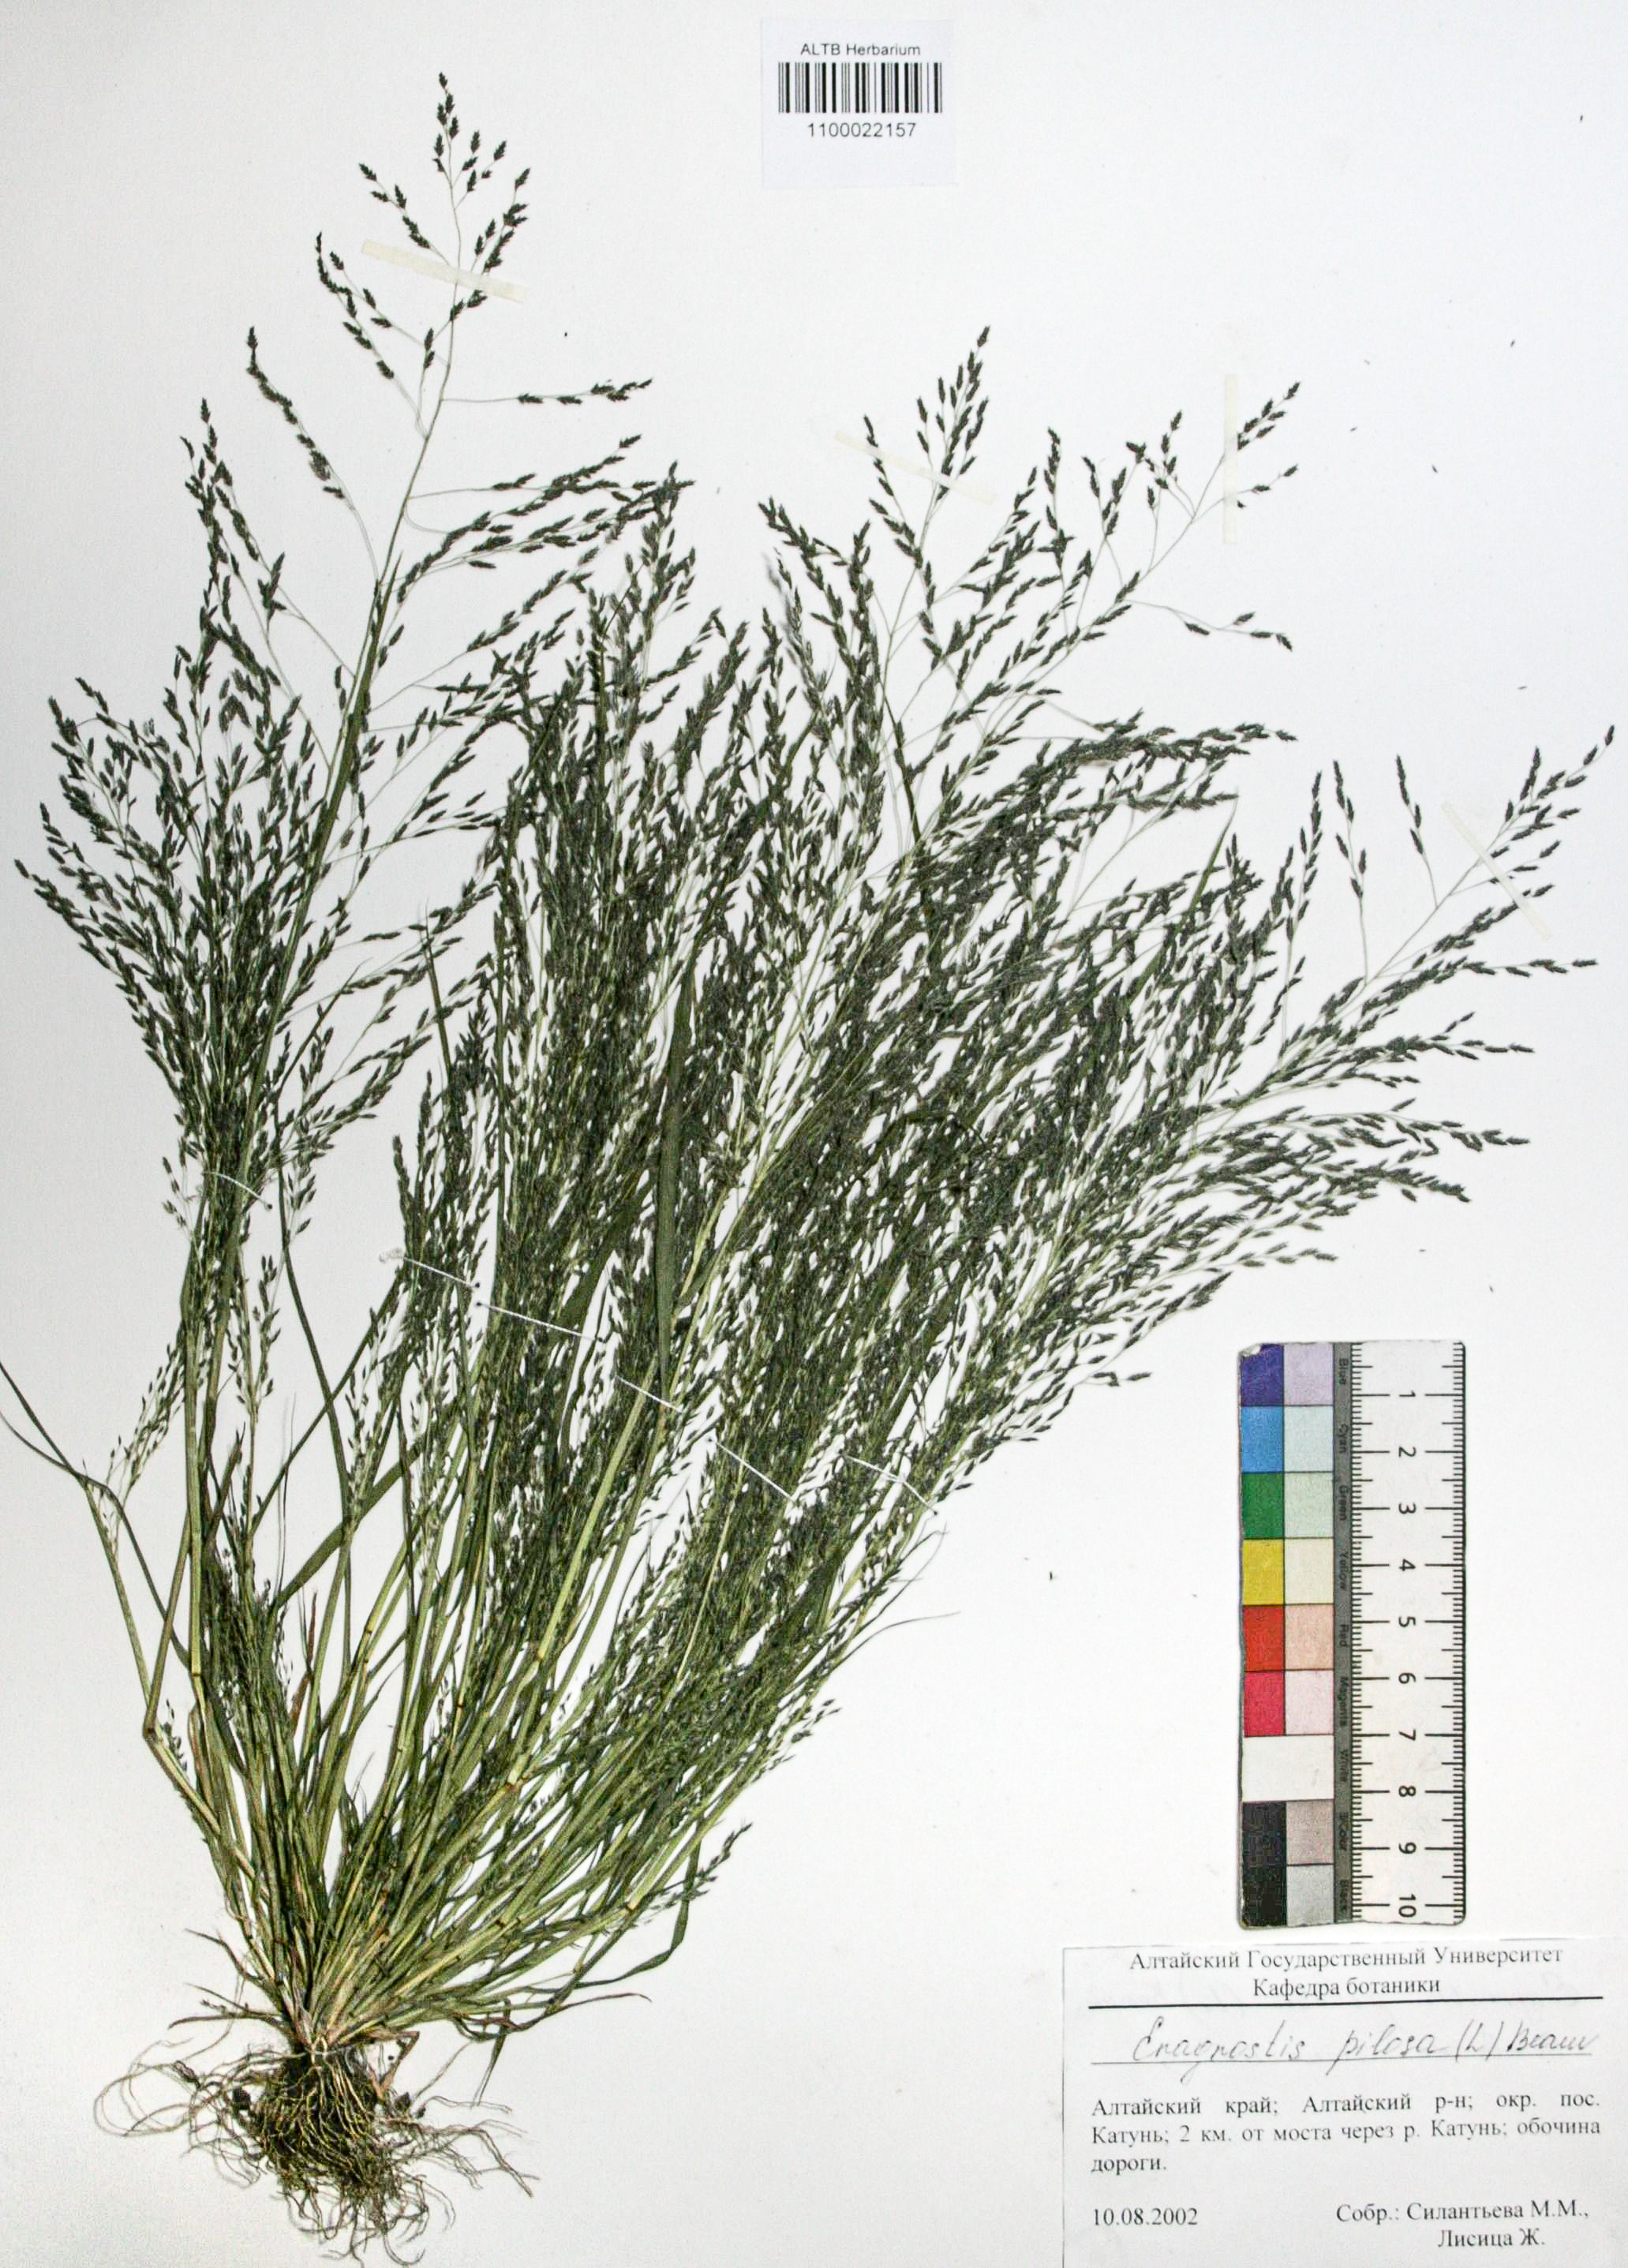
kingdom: Plantae
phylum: Tracheophyta
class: Liliopsida
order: Poales
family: Poaceae
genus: Eragrostis
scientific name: Eragrostis pilosa
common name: Indian lovegrass
